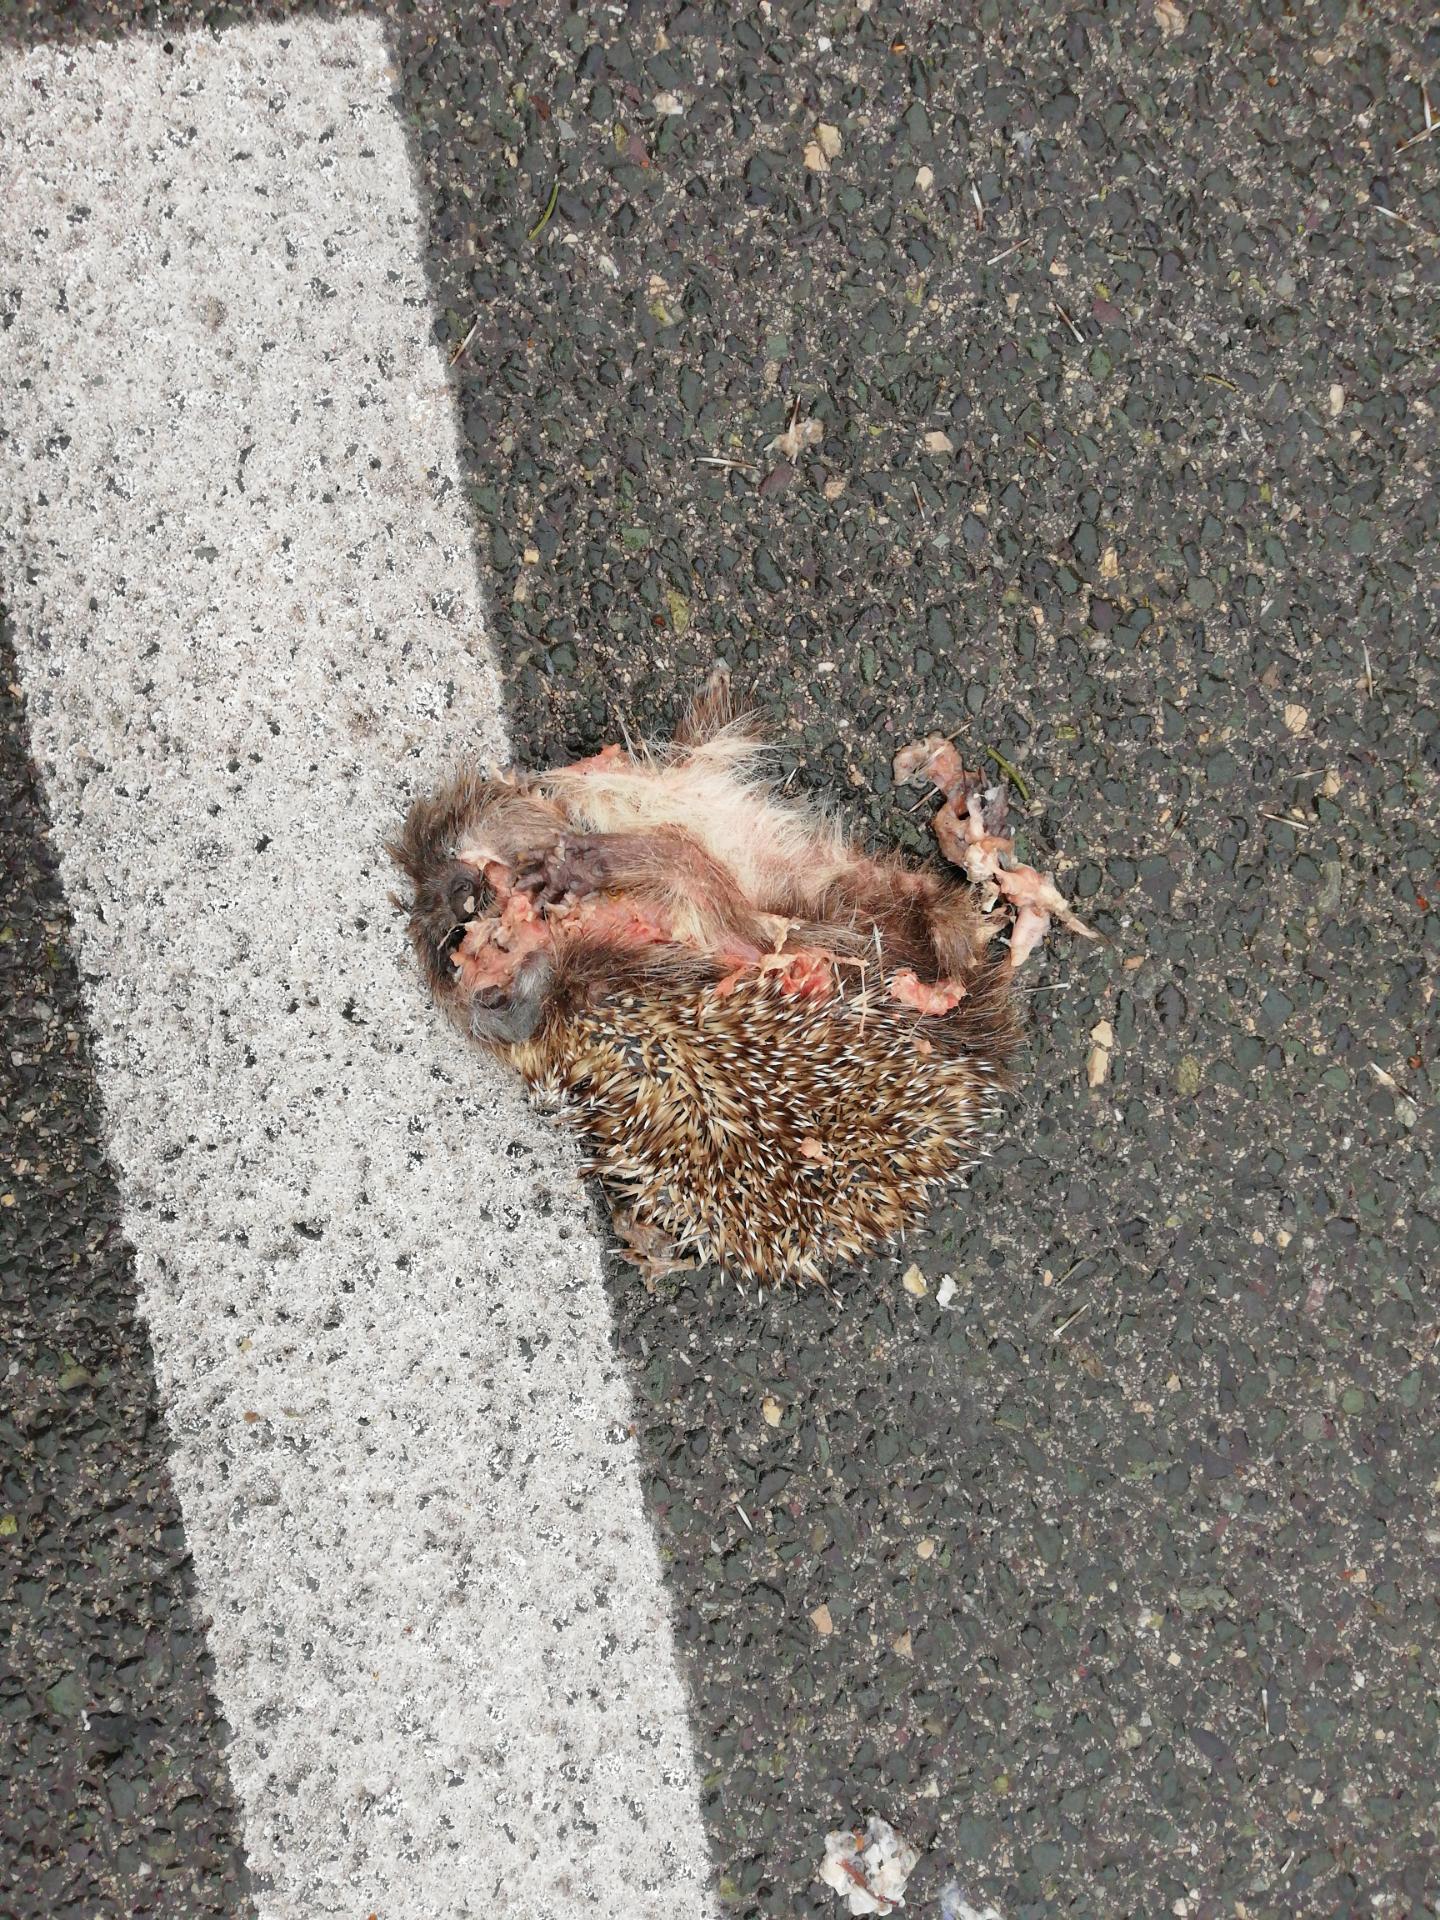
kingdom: Animalia
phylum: Chordata
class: Mammalia
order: Erinaceomorpha
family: Erinaceidae
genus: Erinaceus
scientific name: Erinaceus
